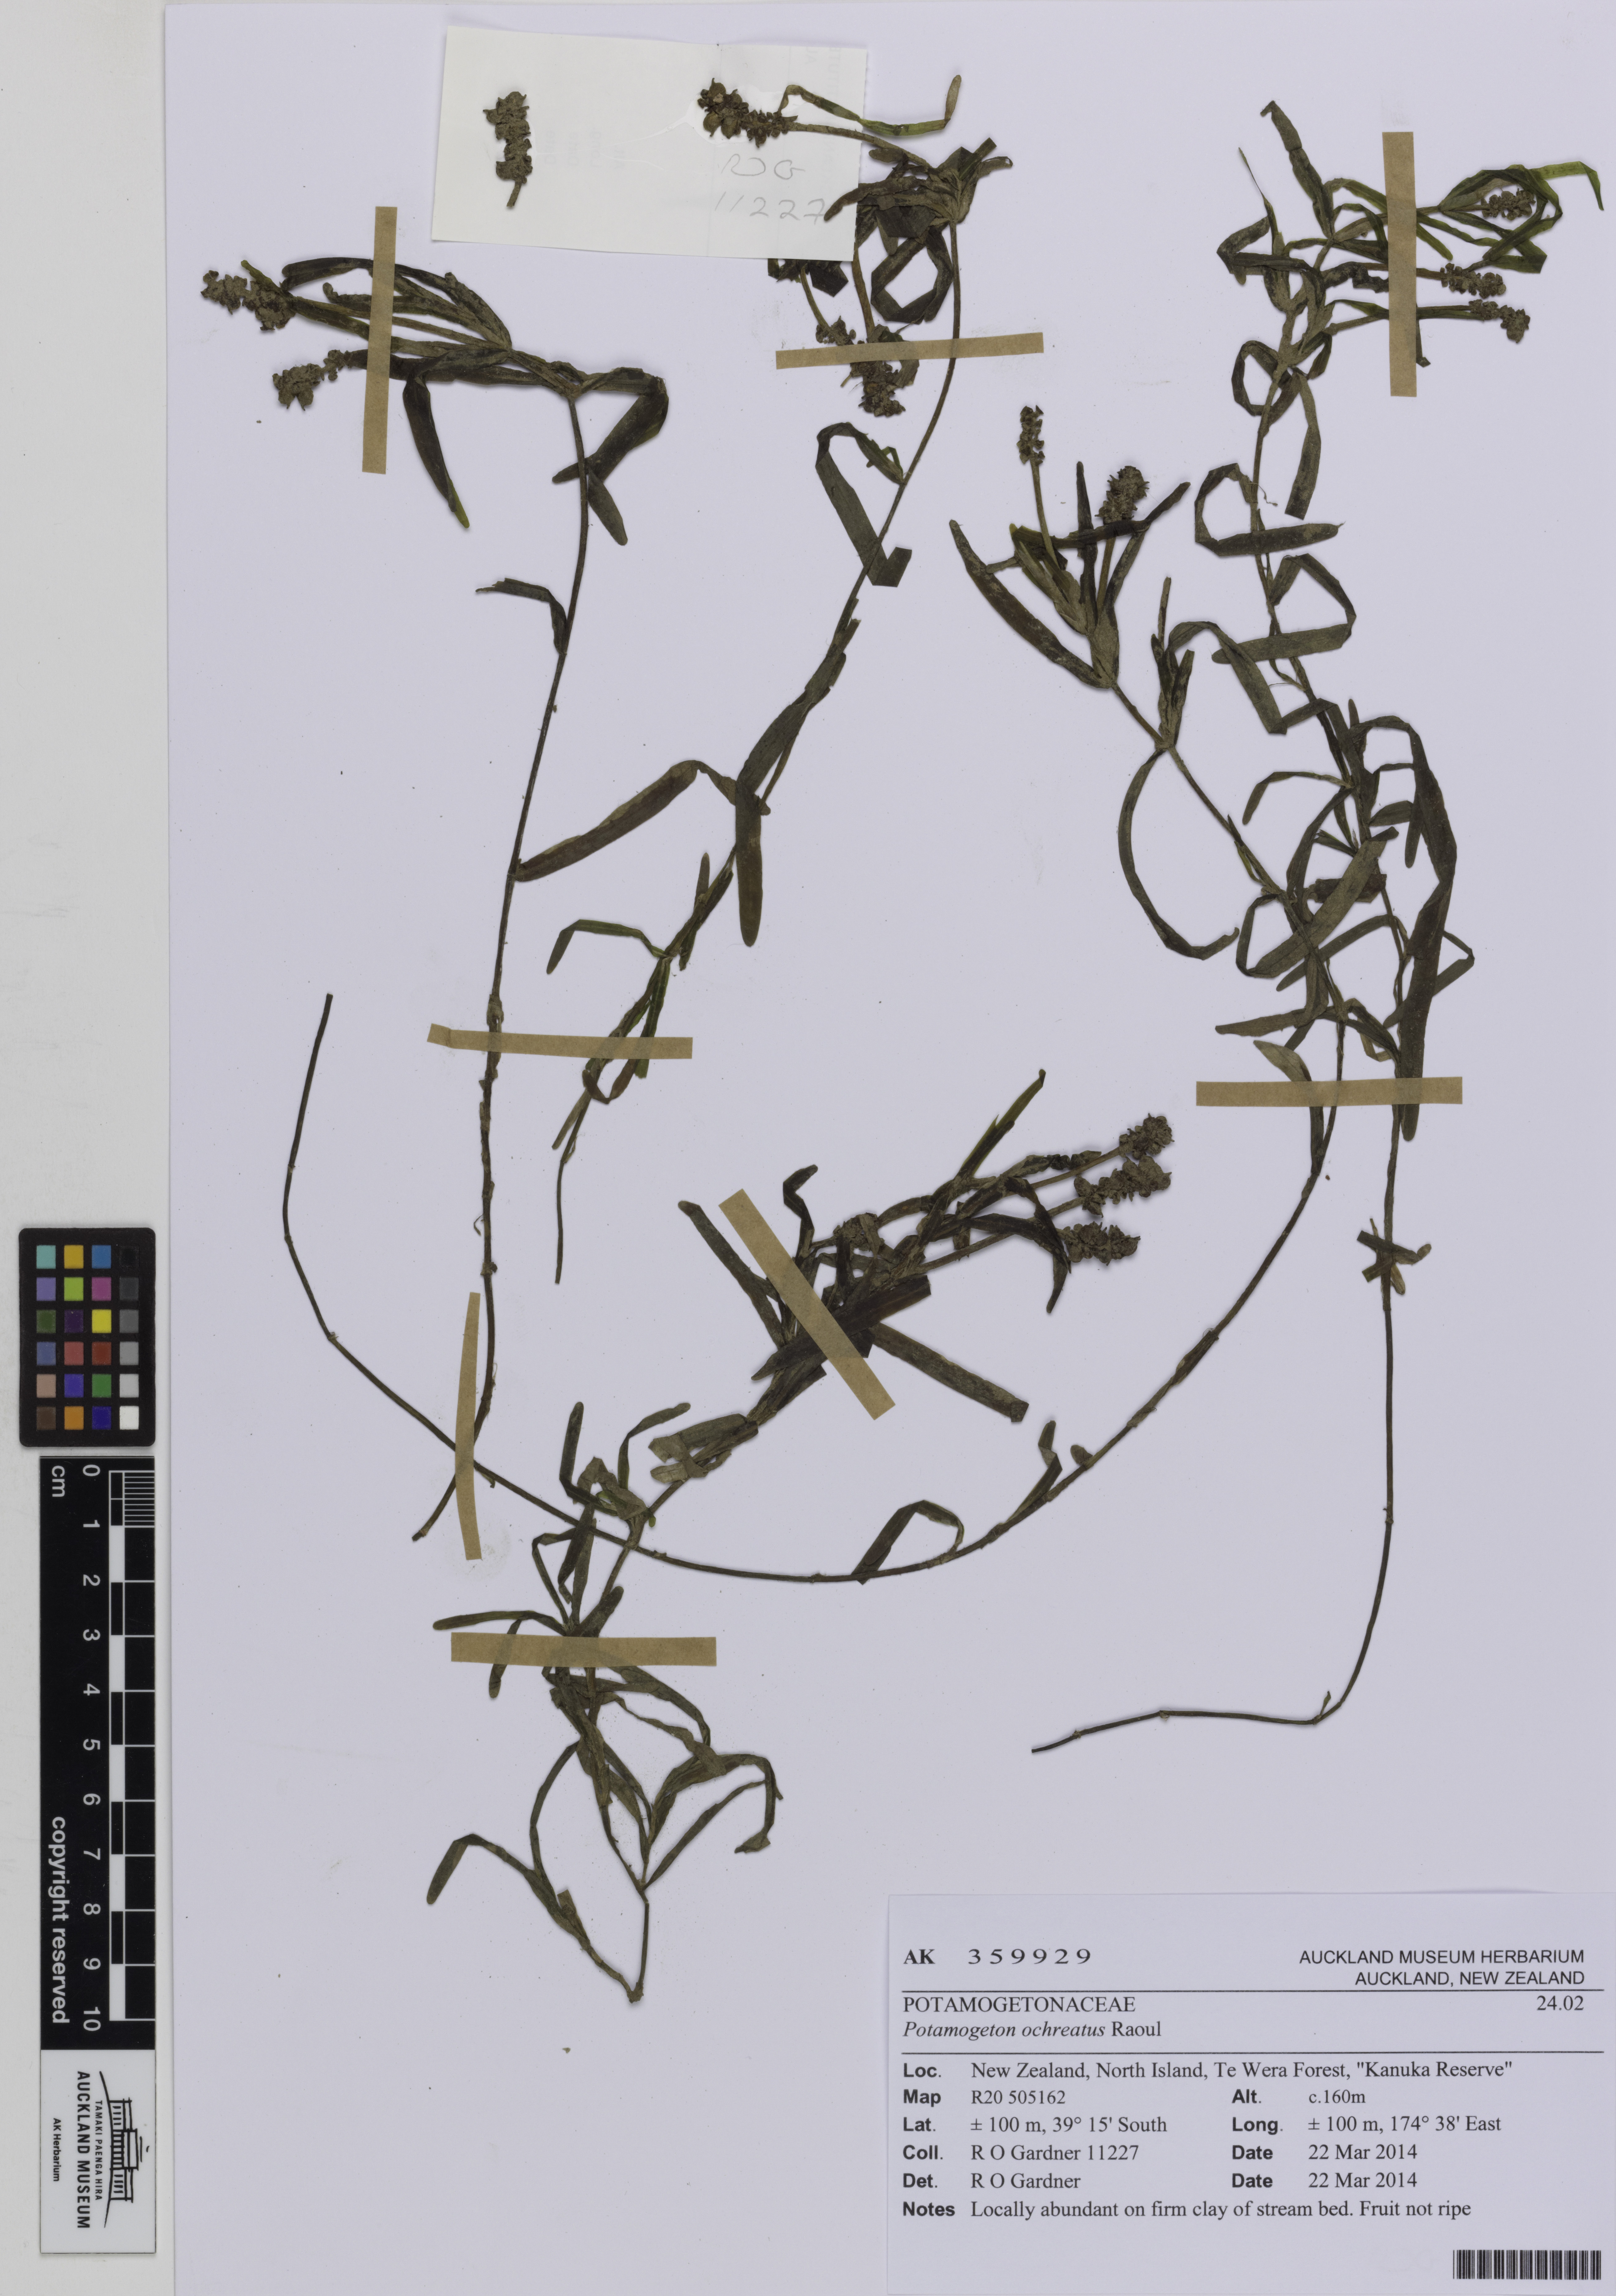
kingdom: Plantae
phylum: Tracheophyta
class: Liliopsida
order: Alismatales
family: Potamogetonaceae
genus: Potamogeton
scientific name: Potamogeton ochreatus
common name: Blunt pondweed
